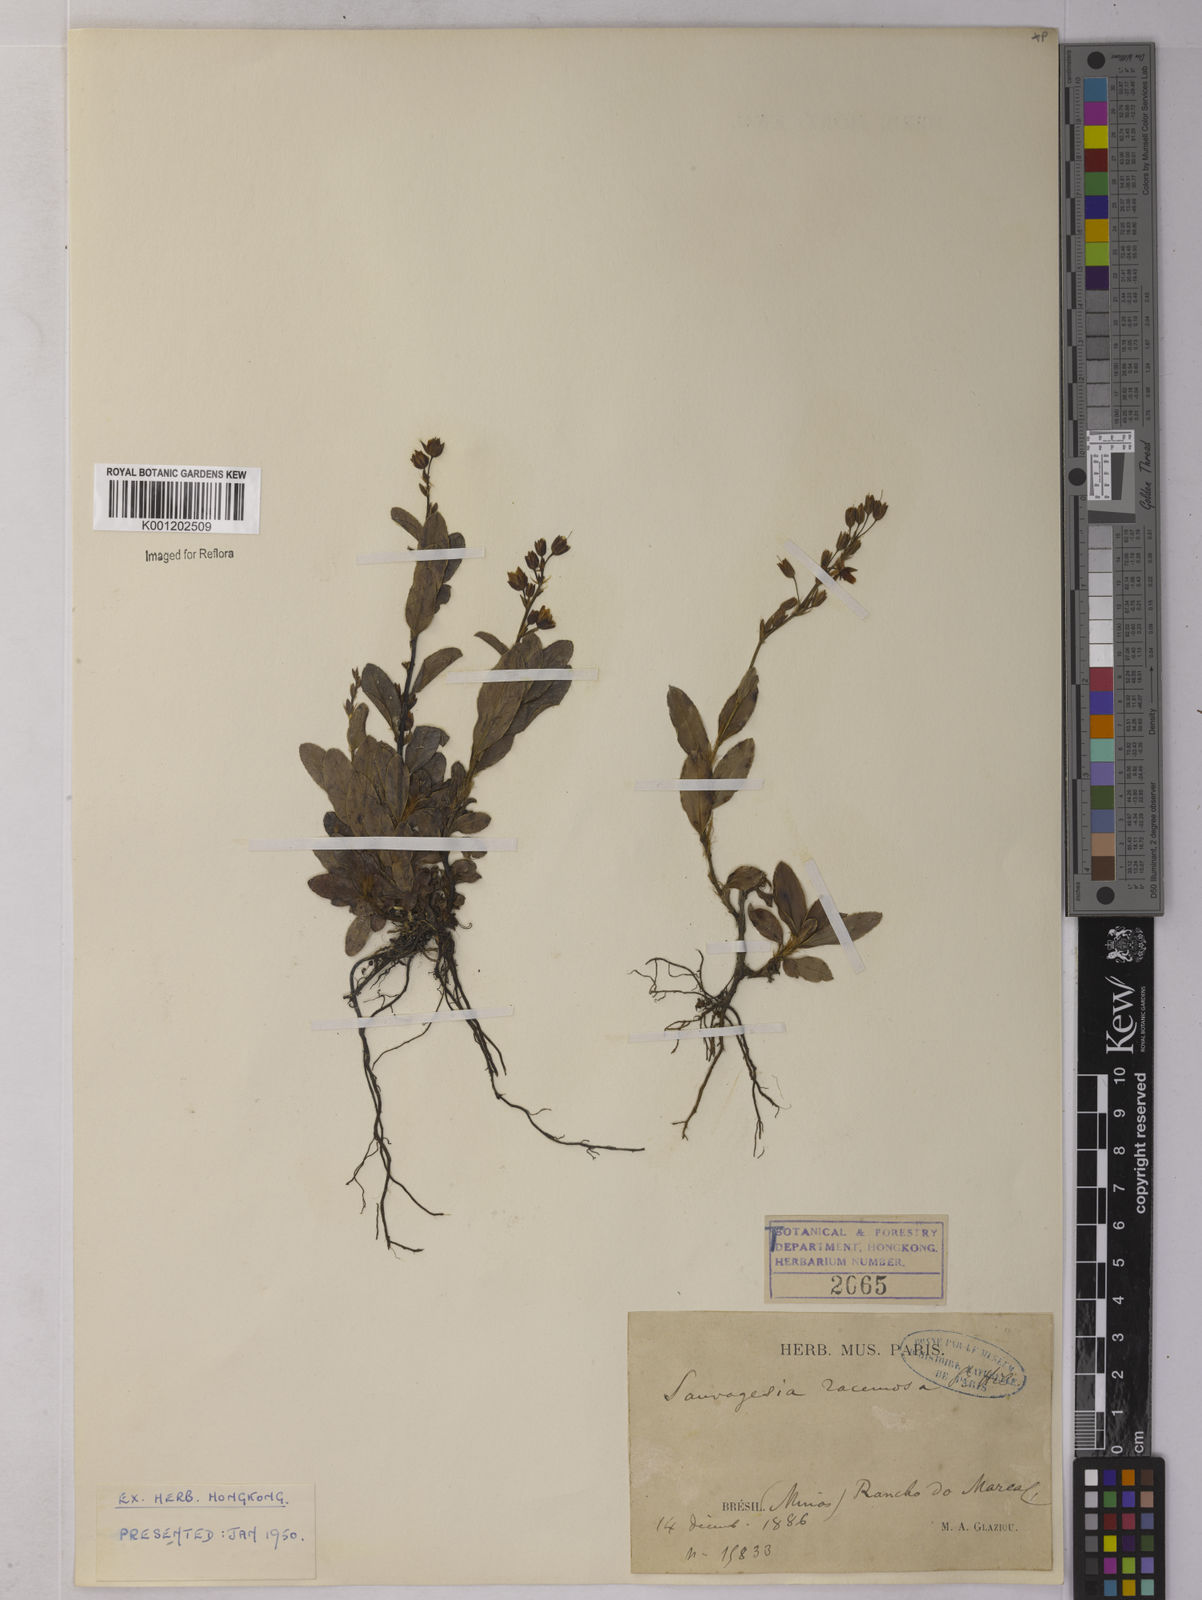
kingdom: Plantae
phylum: Tracheophyta
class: Magnoliopsida
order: Malpighiales
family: Ochnaceae
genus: Sauvagesia
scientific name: Sauvagesia racemosa
